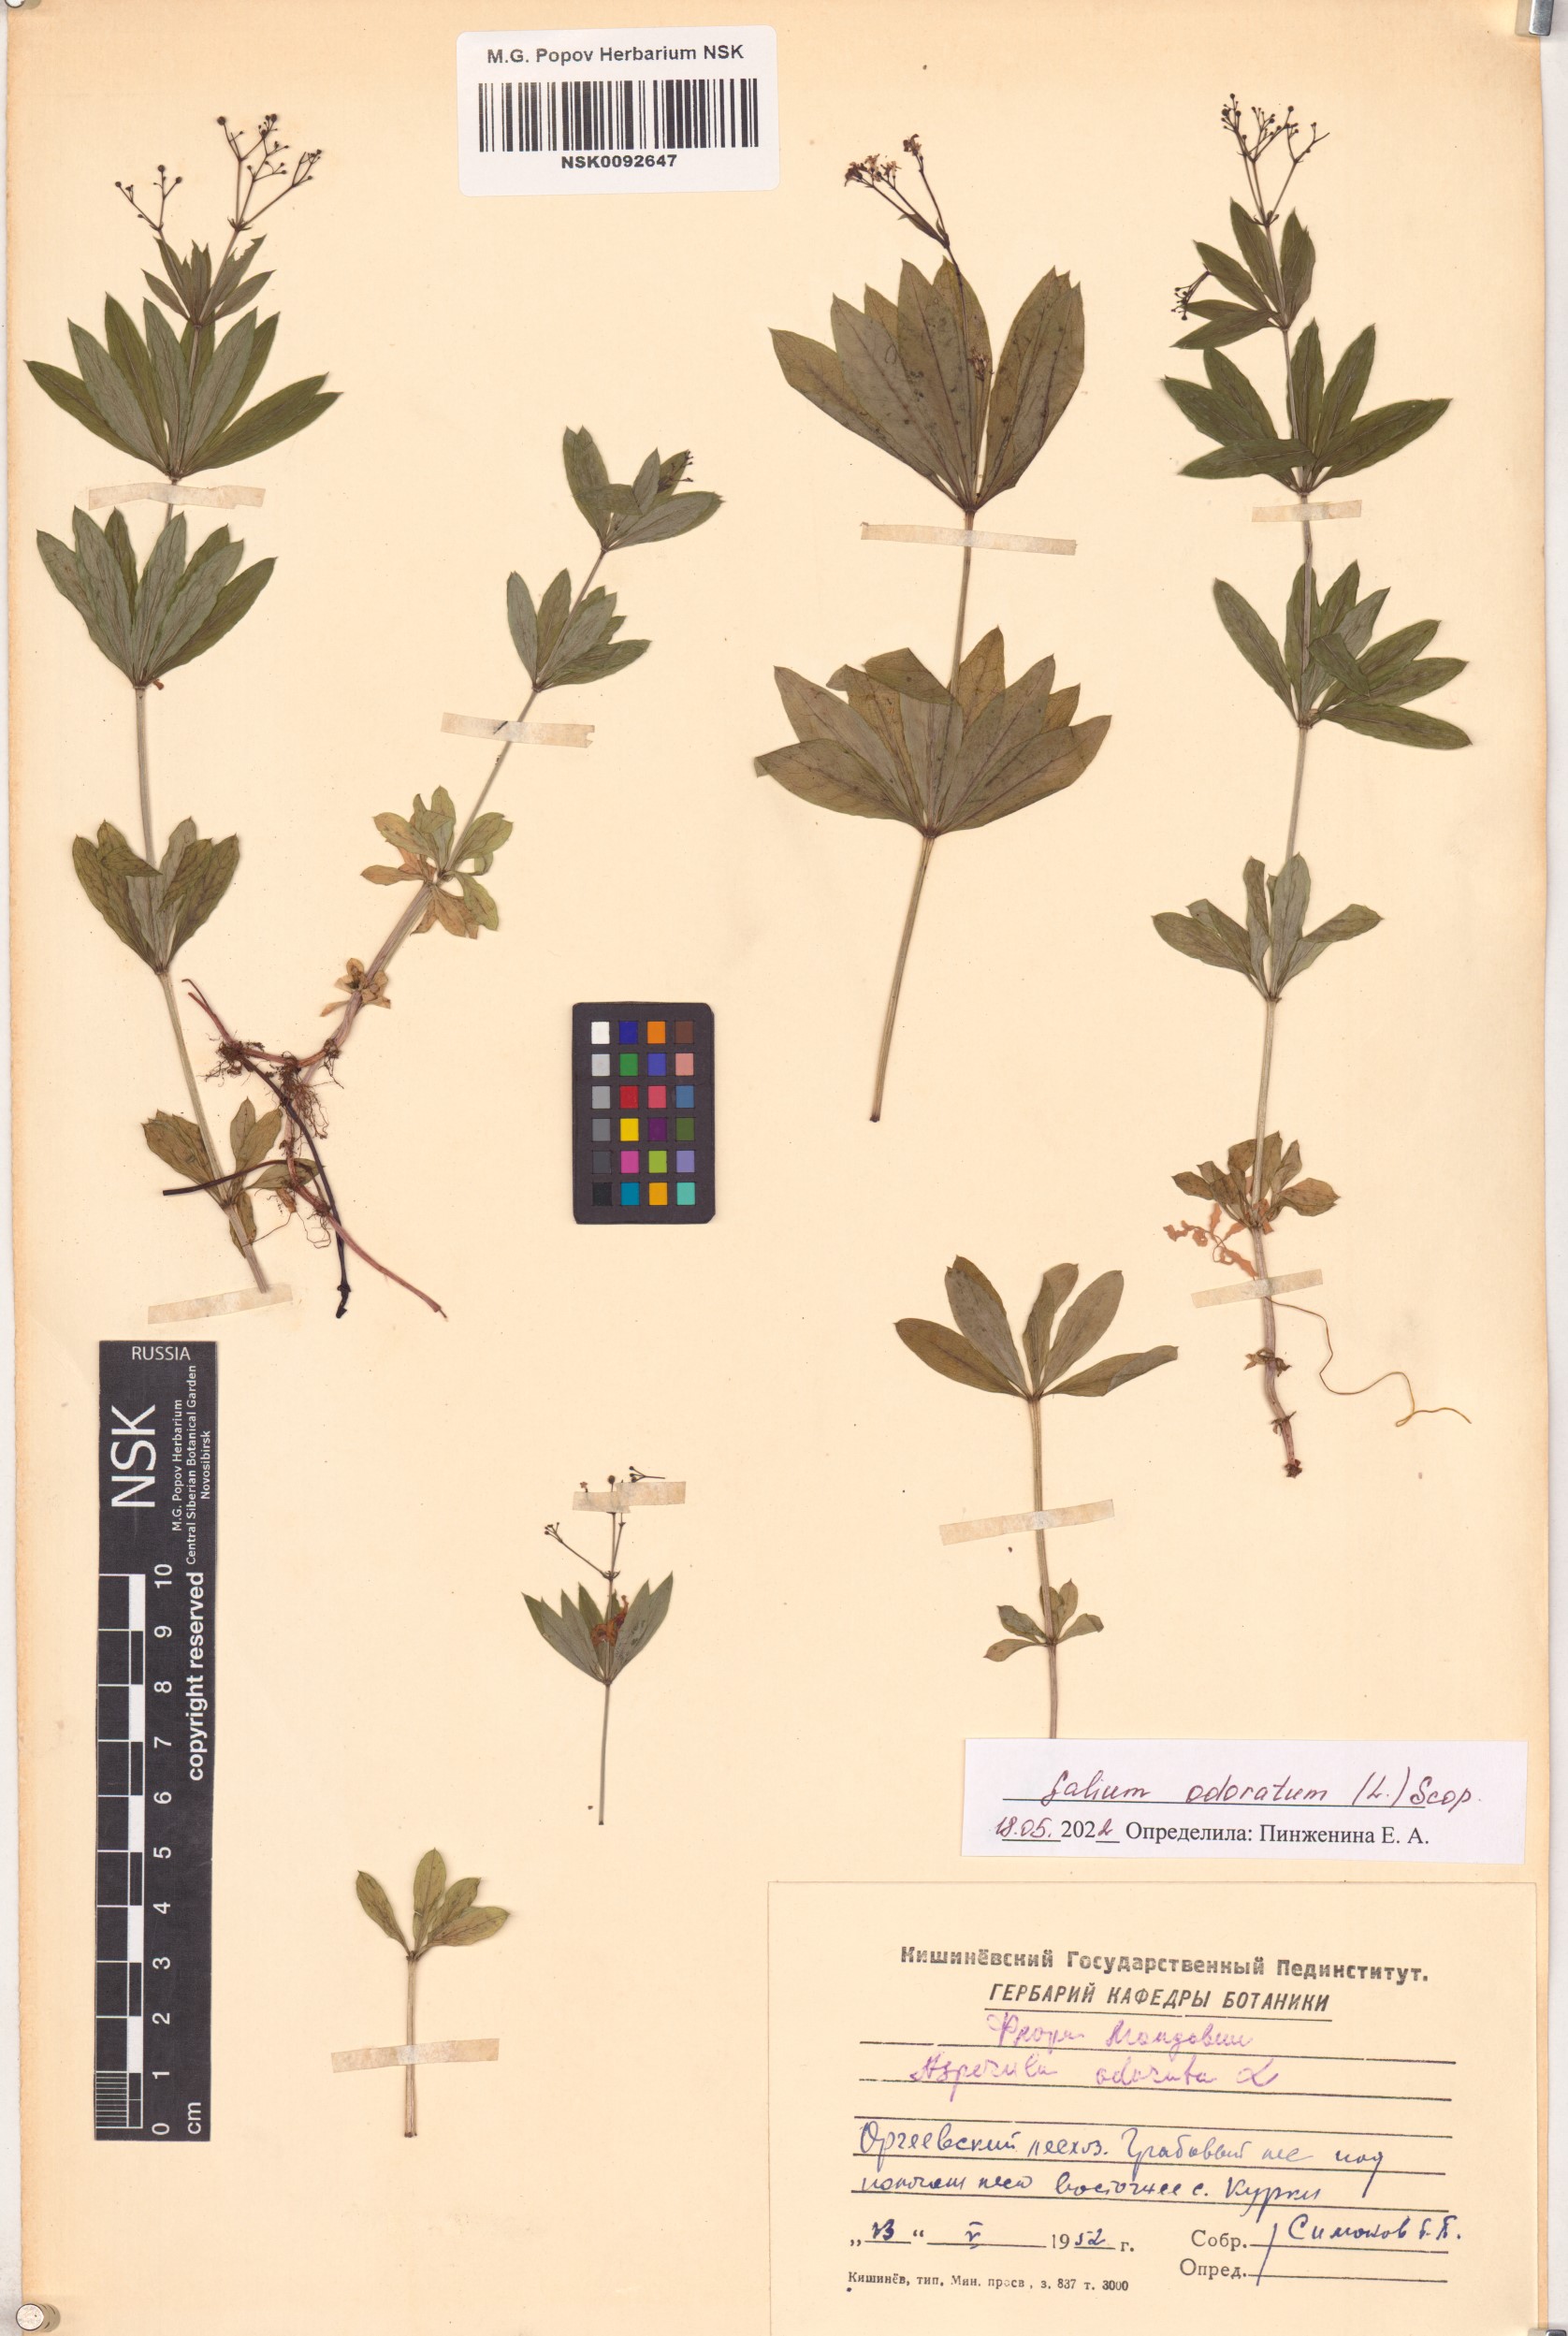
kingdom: Plantae
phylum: Tracheophyta
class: Magnoliopsida
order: Gentianales
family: Rubiaceae
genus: Galium
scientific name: Galium odoratum
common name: Sweet woodruff
